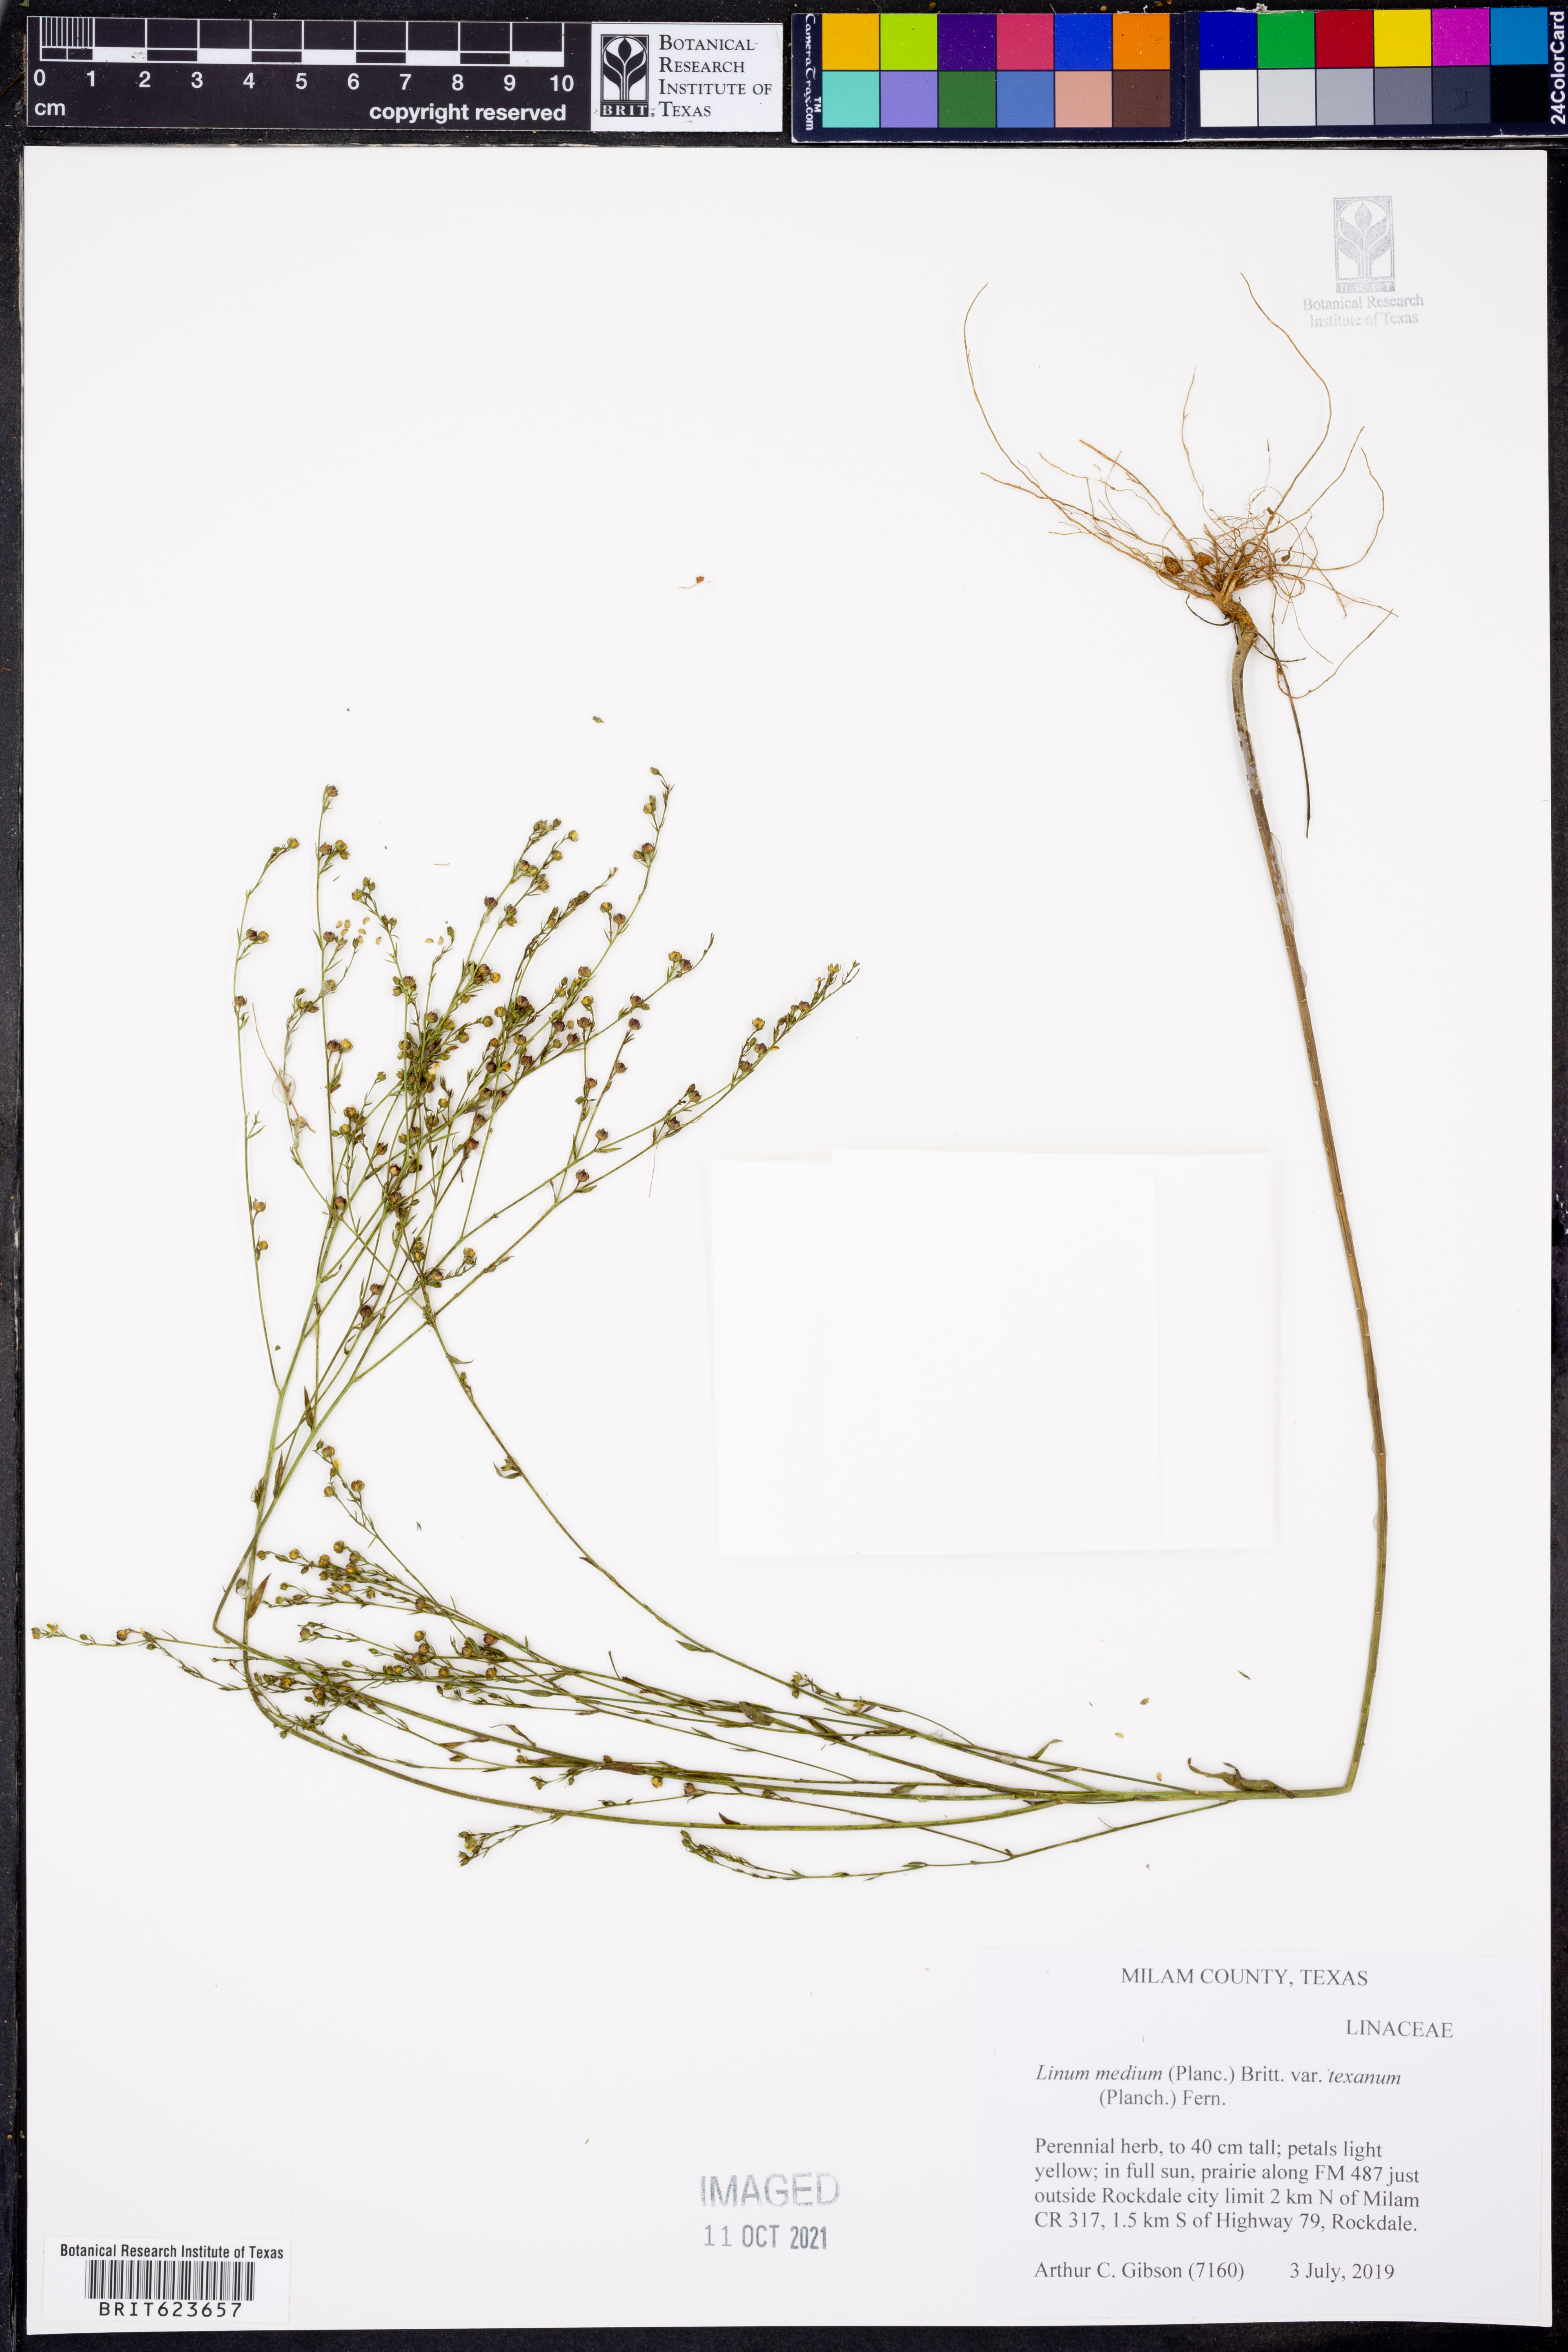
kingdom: Plantae
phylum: Tracheophyta
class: Magnoliopsida
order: Malpighiales
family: Linaceae
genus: Linum
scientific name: Linum medium
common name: Stiff yellow flax
